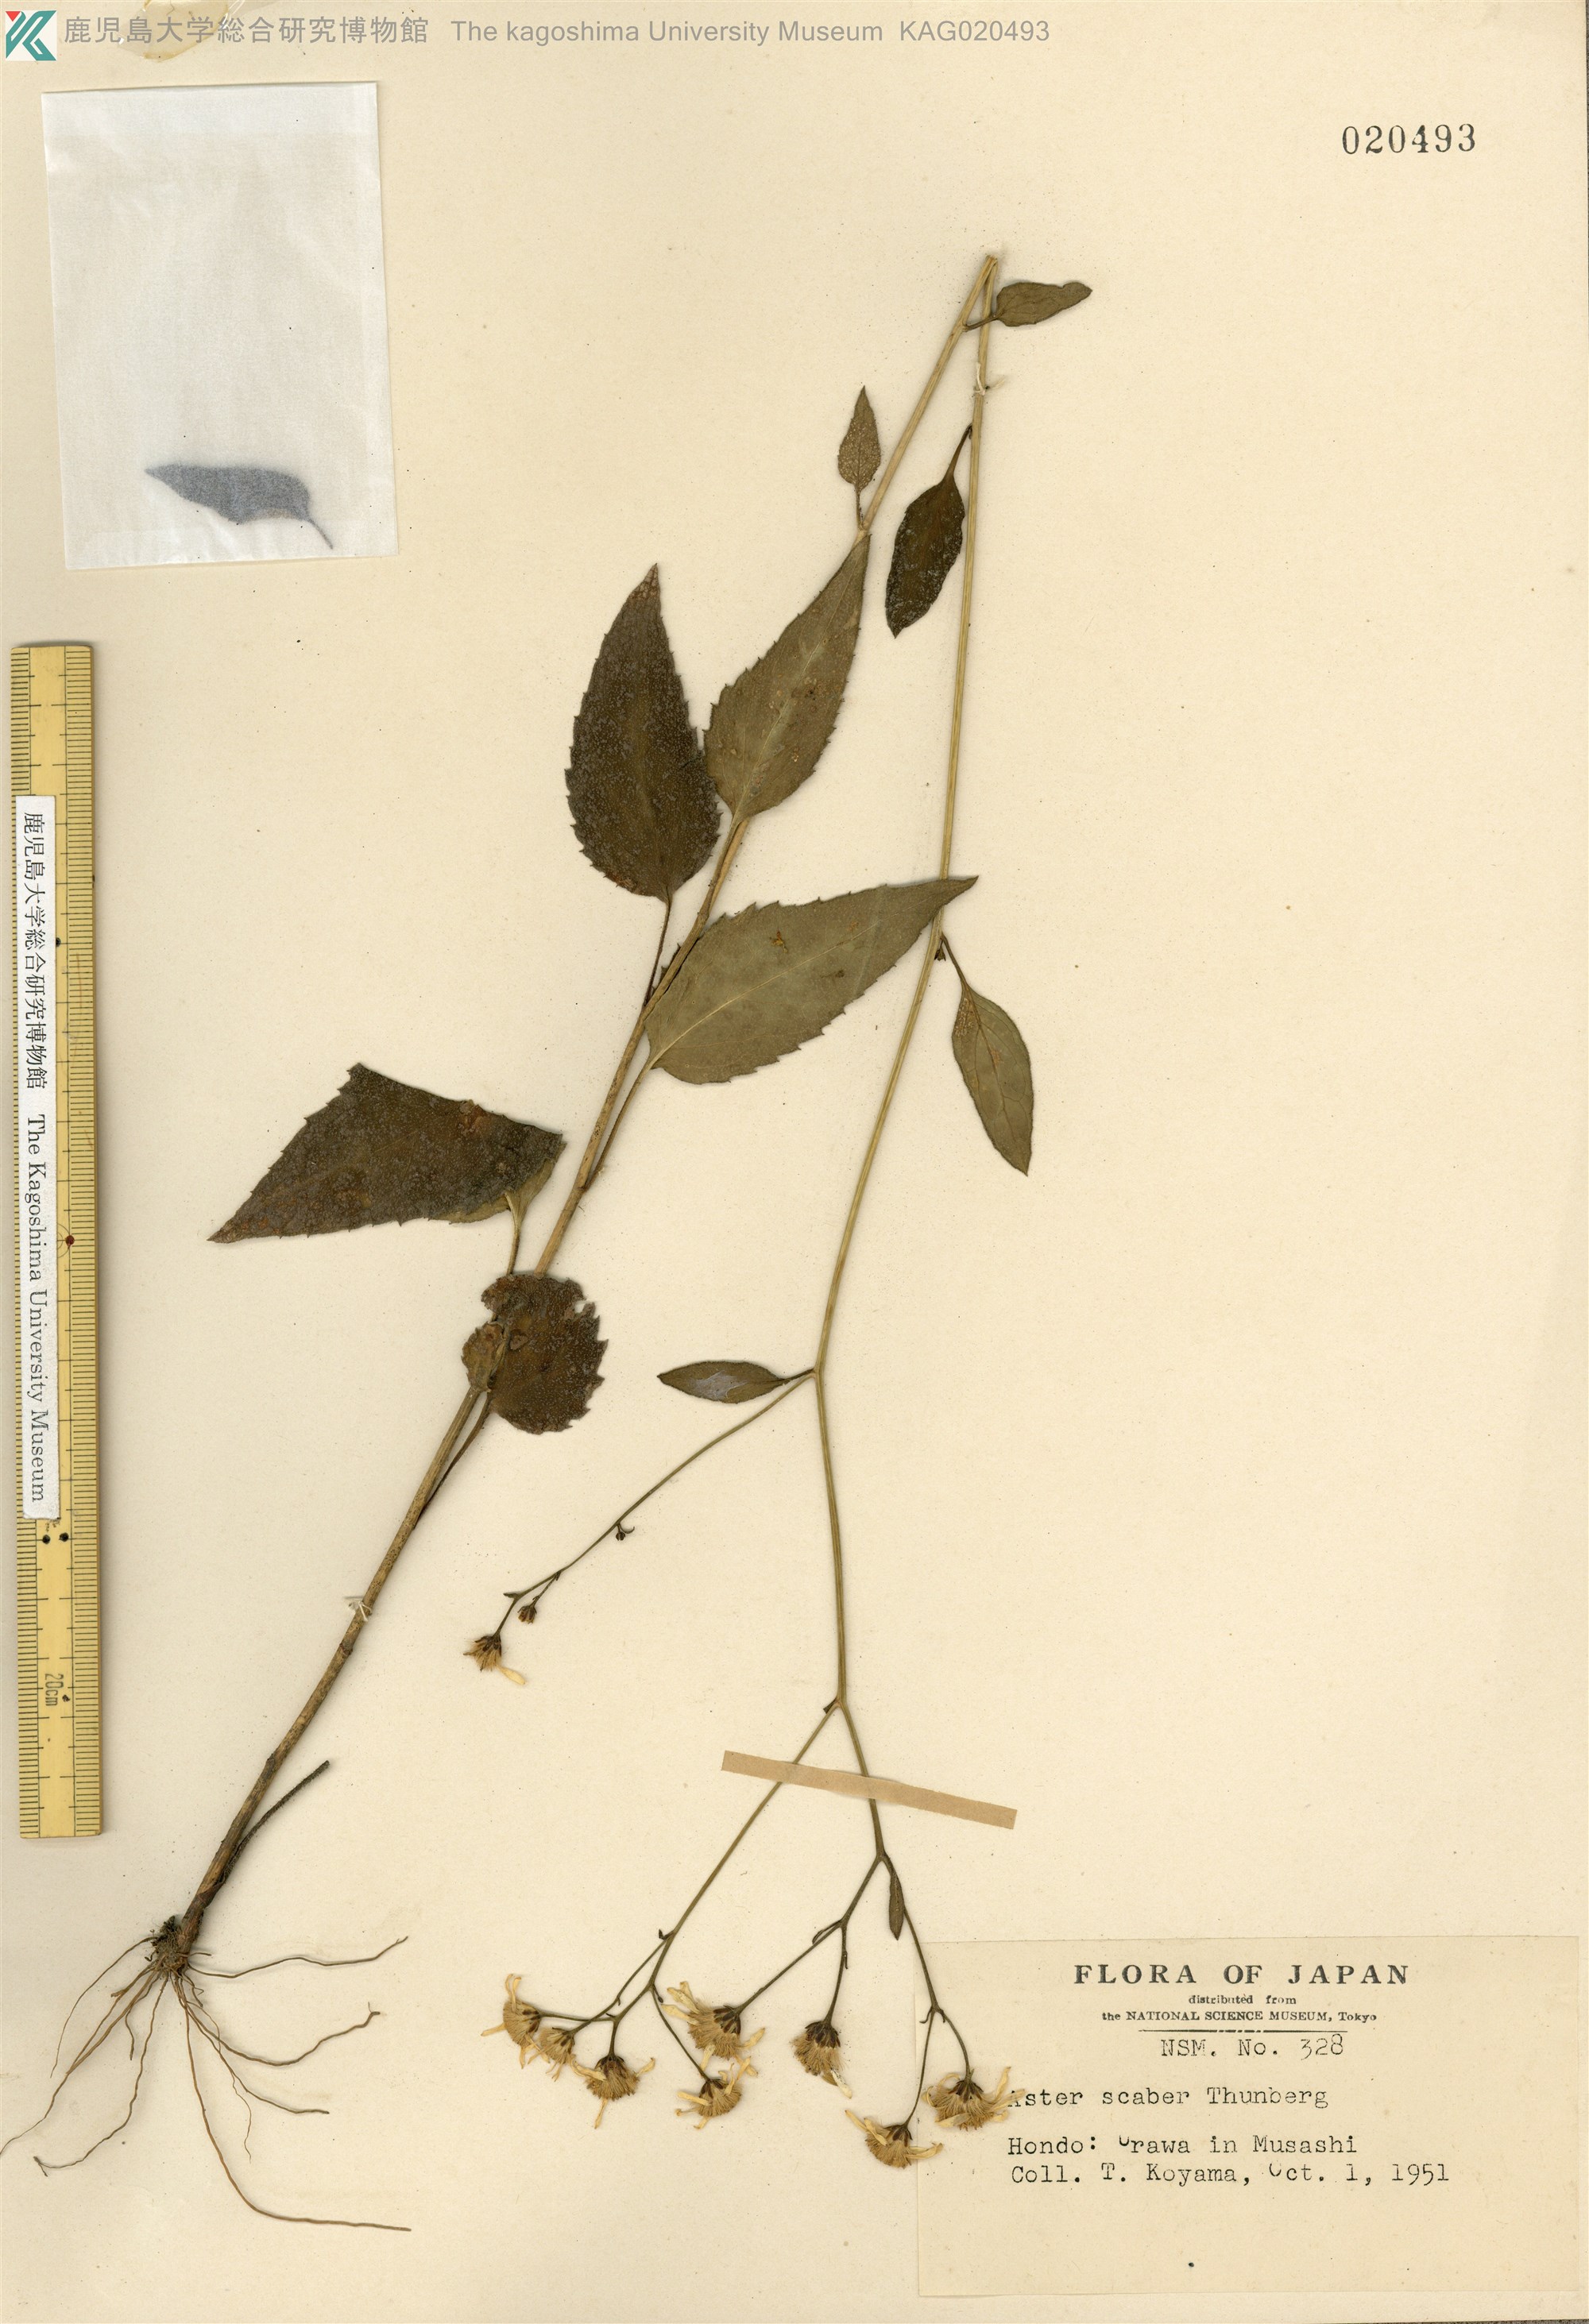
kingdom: Plantae
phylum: Tracheophyta
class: Magnoliopsida
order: Asterales
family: Asteraceae
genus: Cardiagyris
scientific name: Cardiagyris scabra
